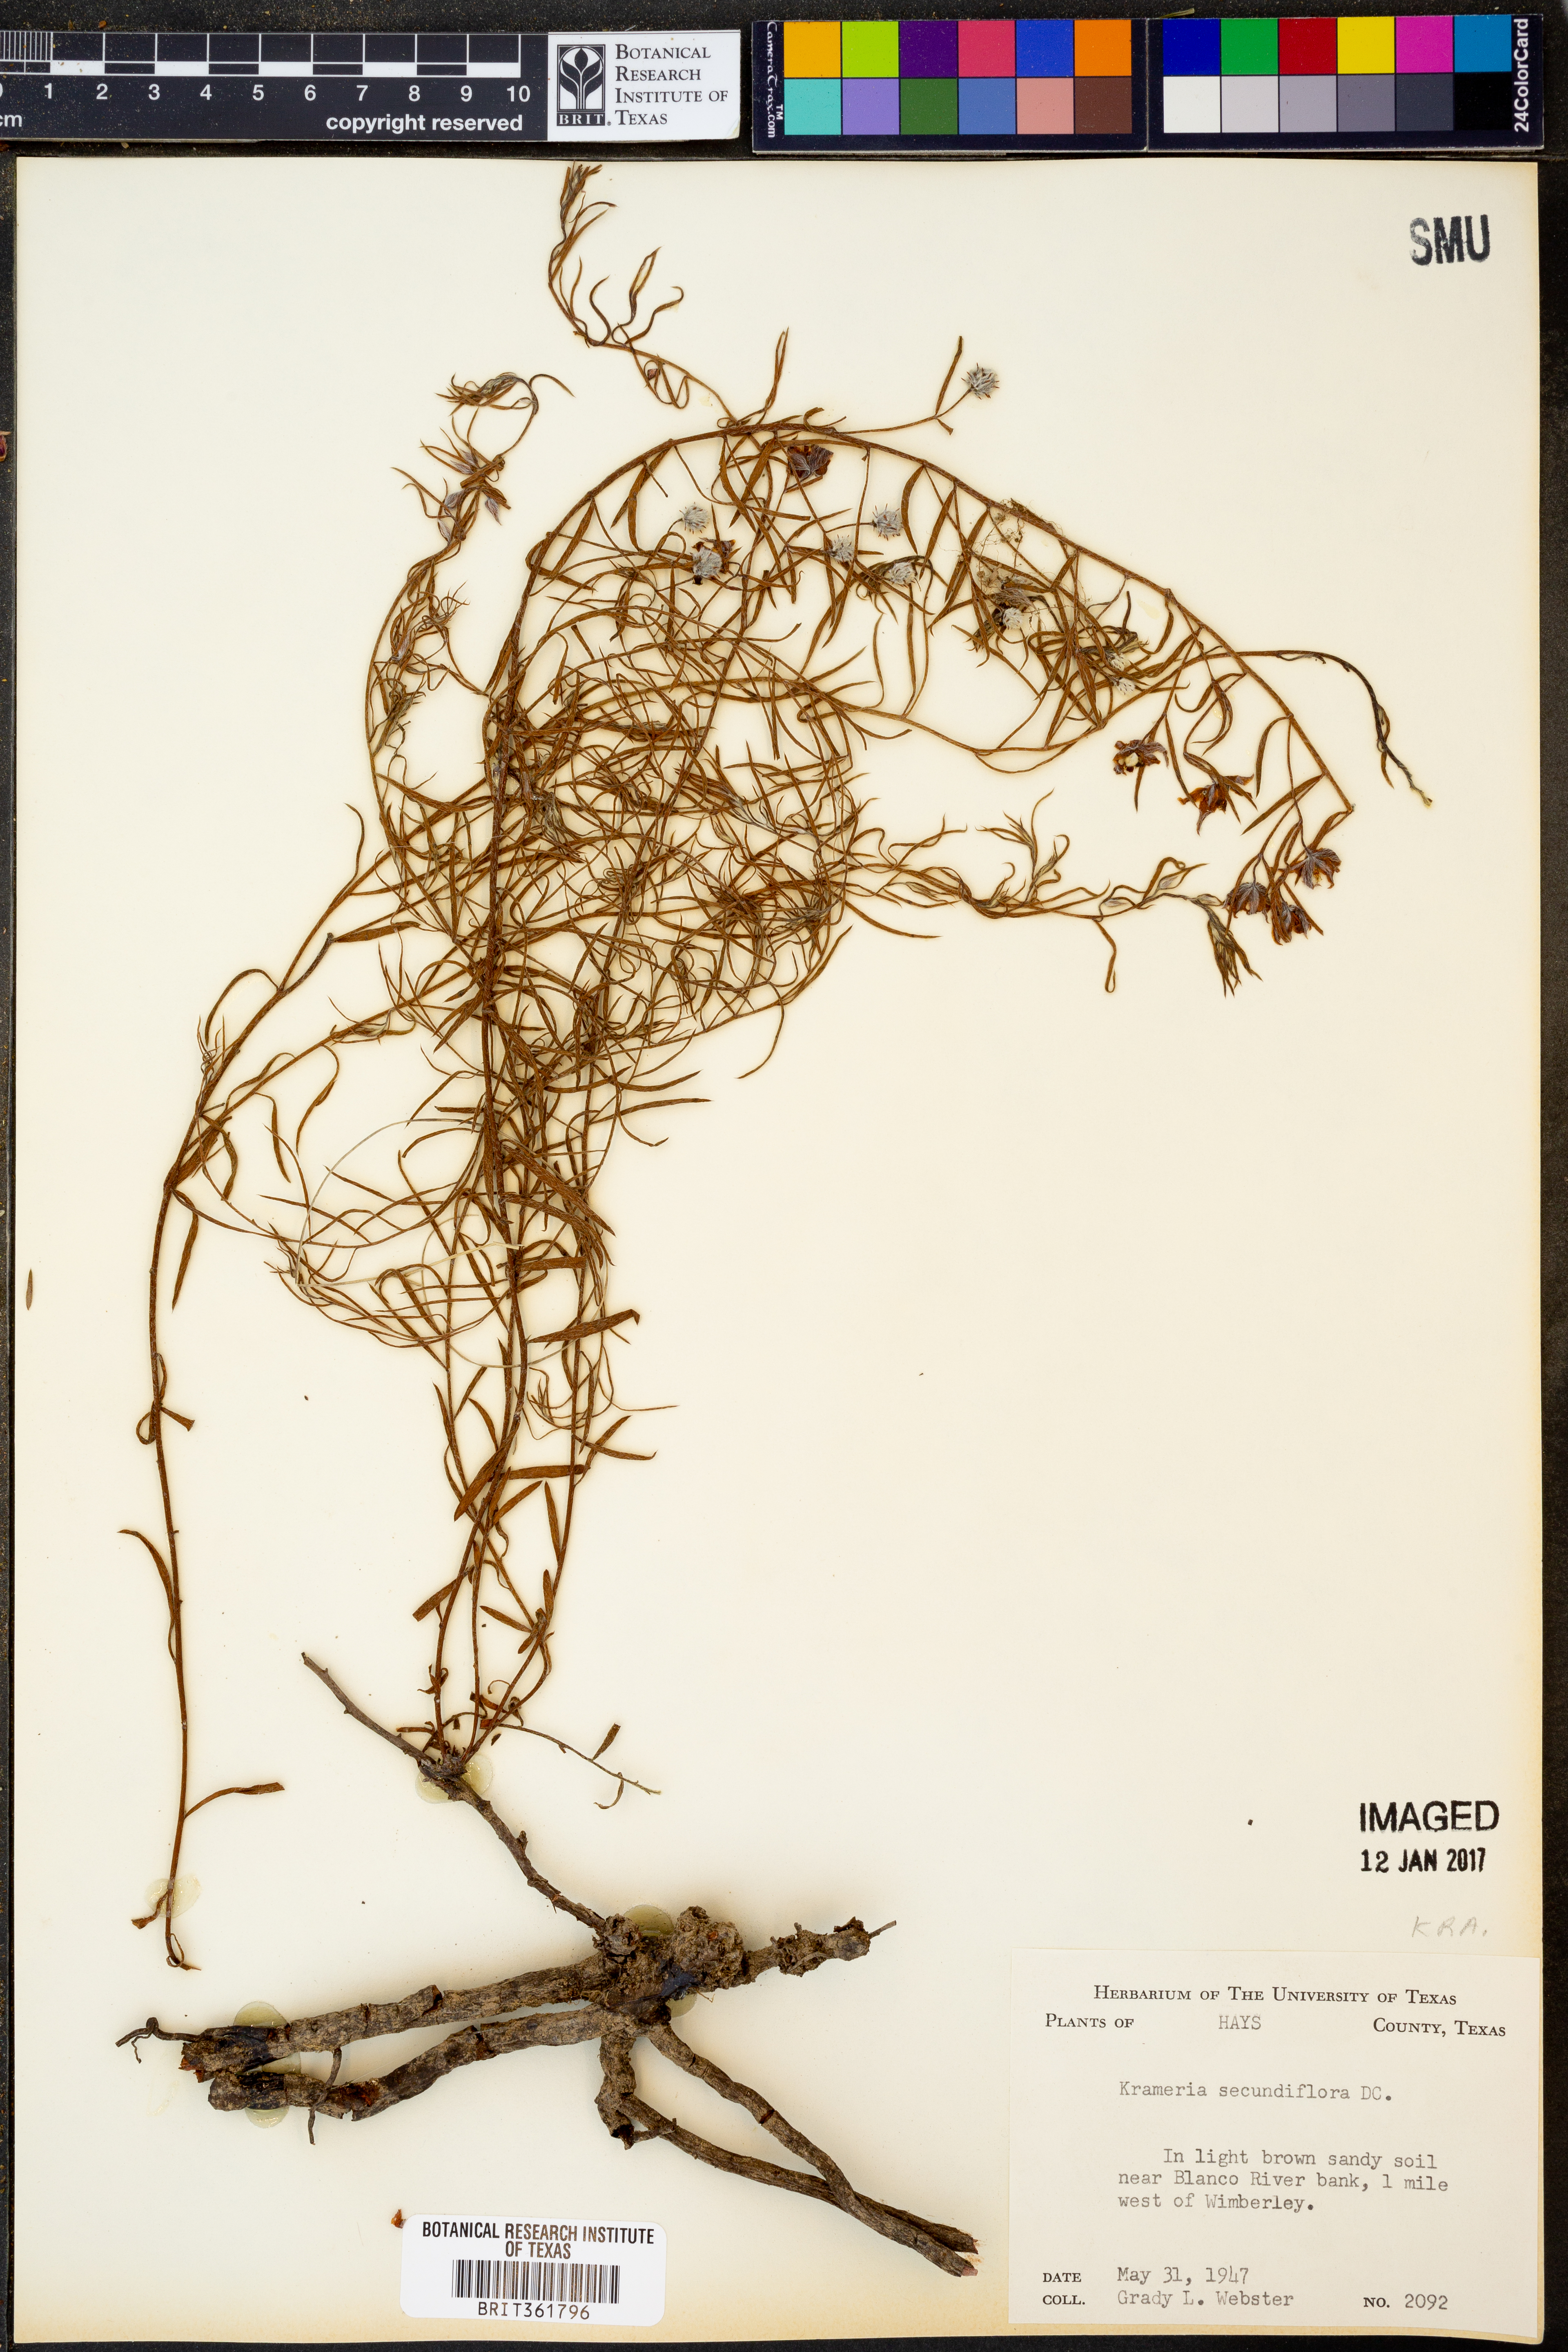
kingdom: Plantae
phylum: Tracheophyta
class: Magnoliopsida
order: Zygophyllales
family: Krameriaceae
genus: Krameria
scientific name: Krameria secundiflora
